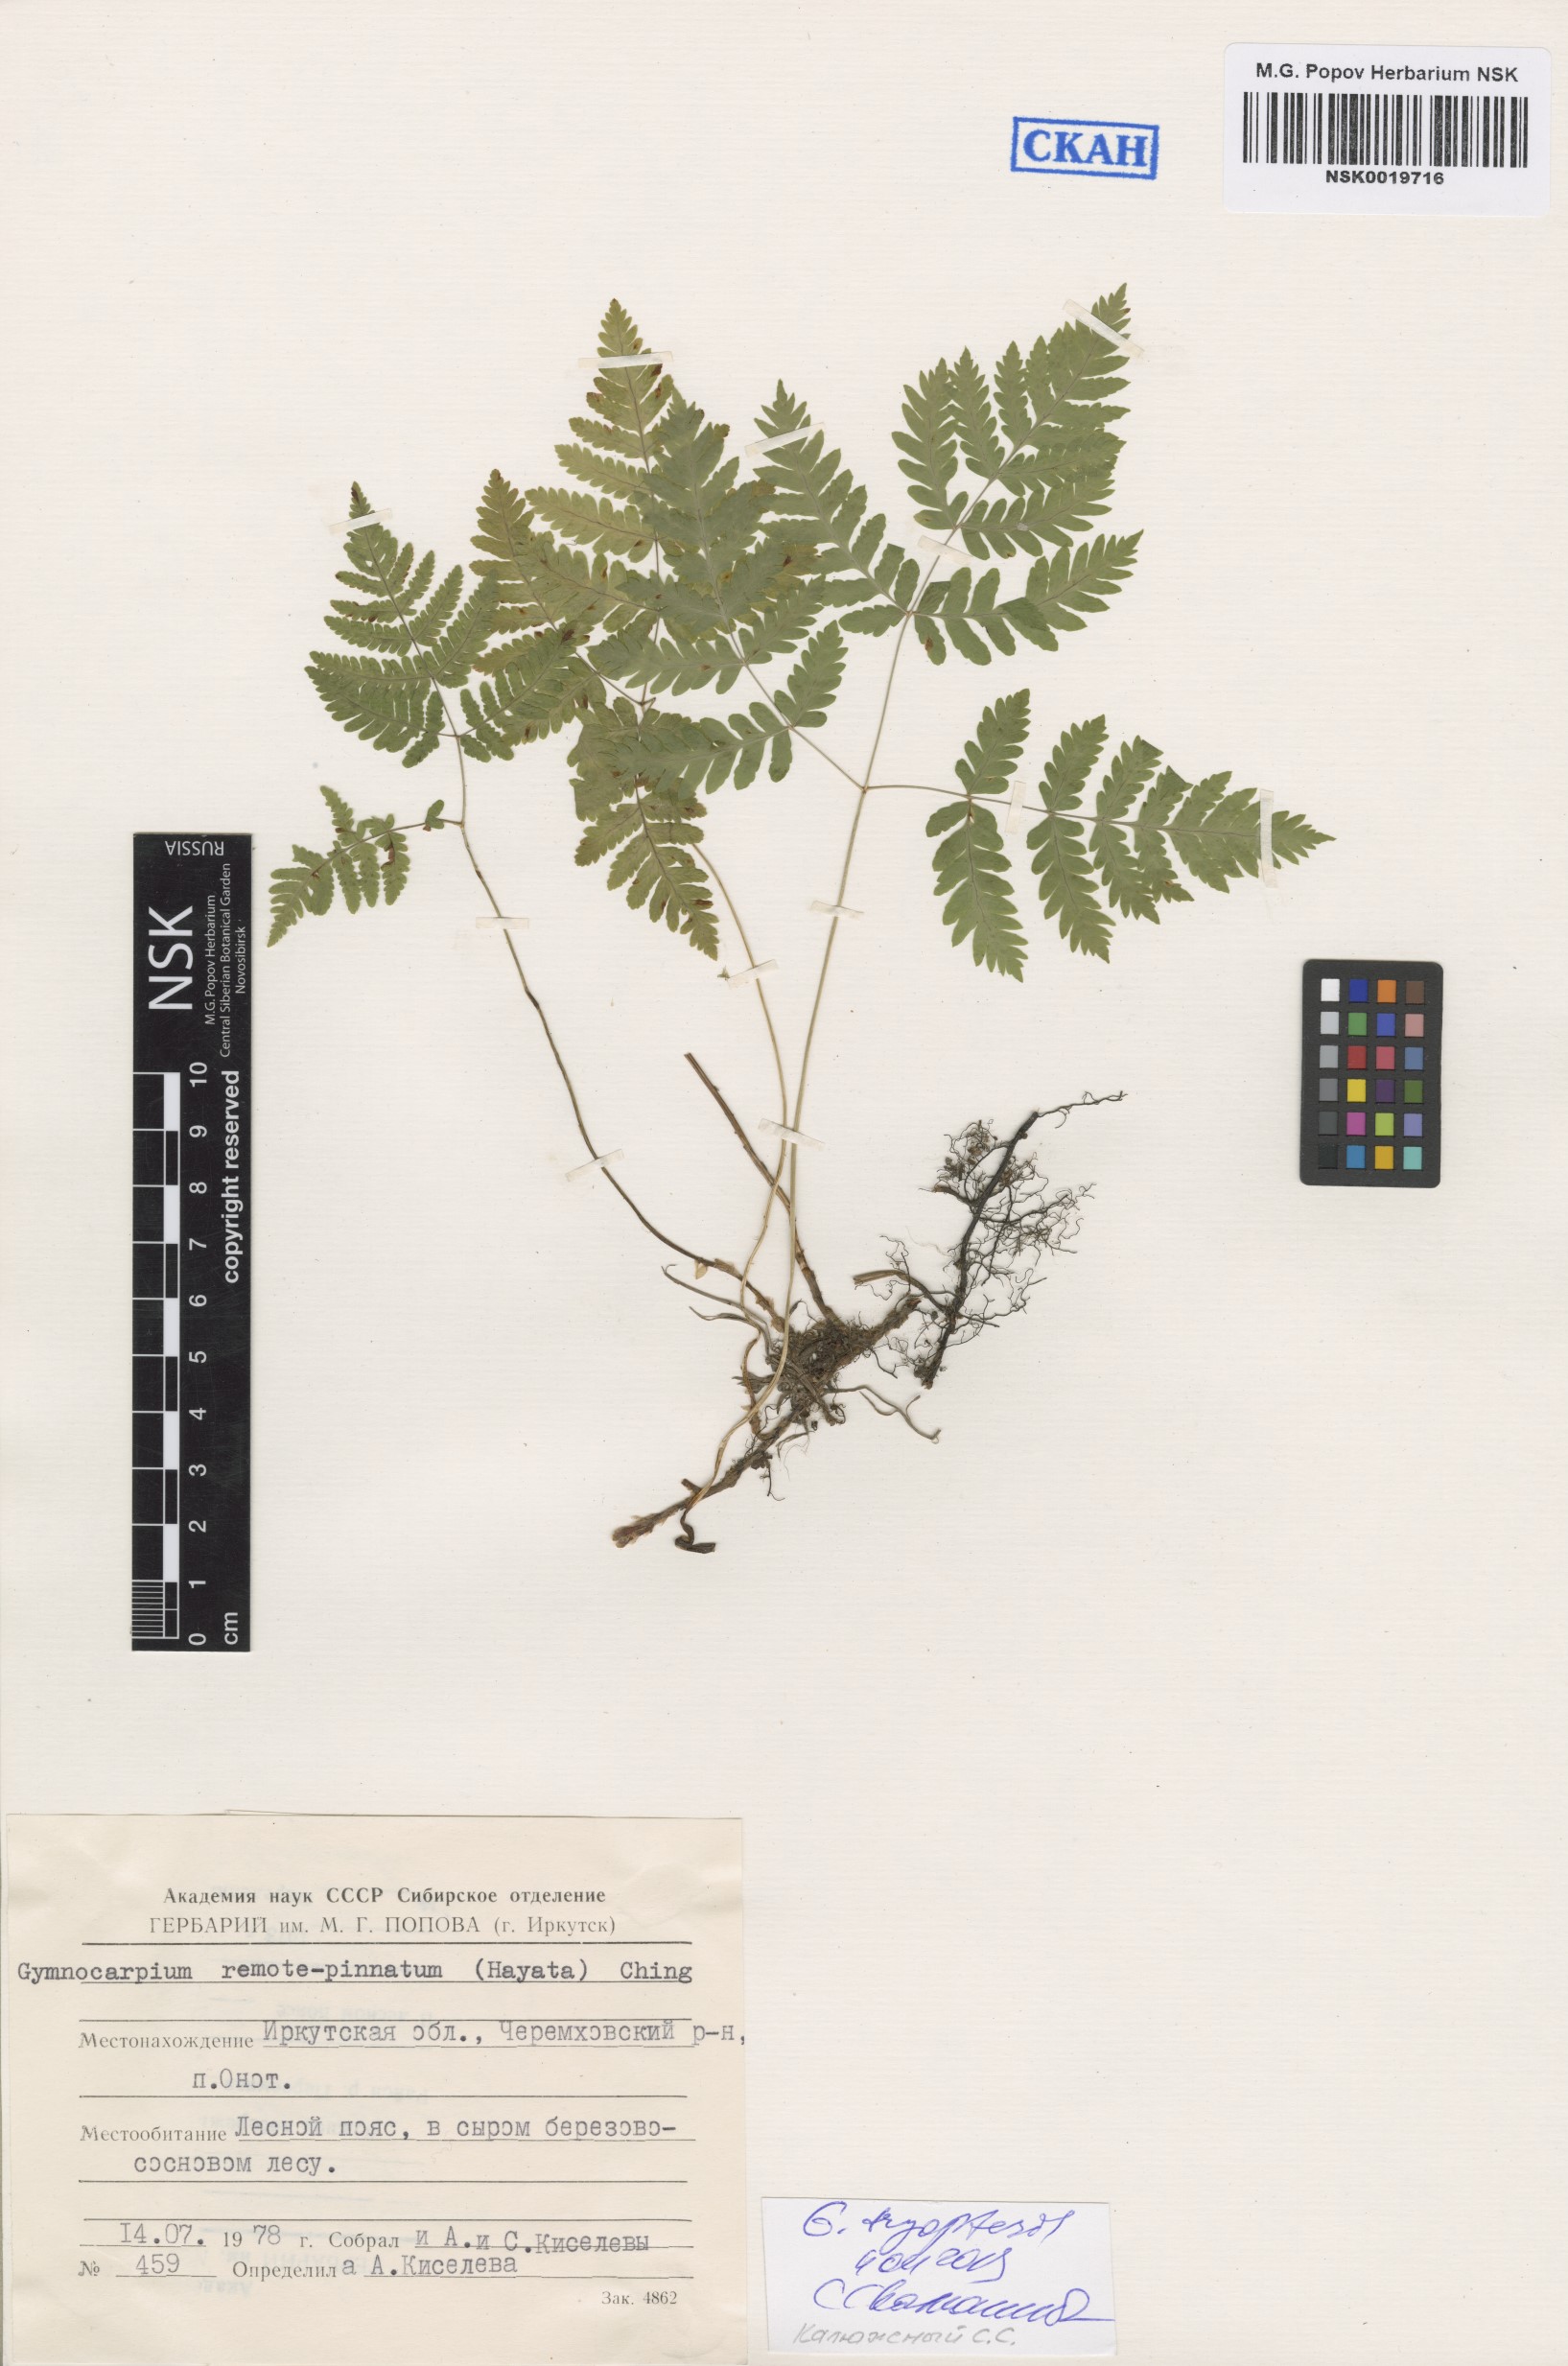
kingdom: Plantae
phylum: Tracheophyta
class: Polypodiopsida
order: Polypodiales
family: Cystopteridaceae
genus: Gymnocarpium
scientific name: Gymnocarpium dryopteris
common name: Oak fern
